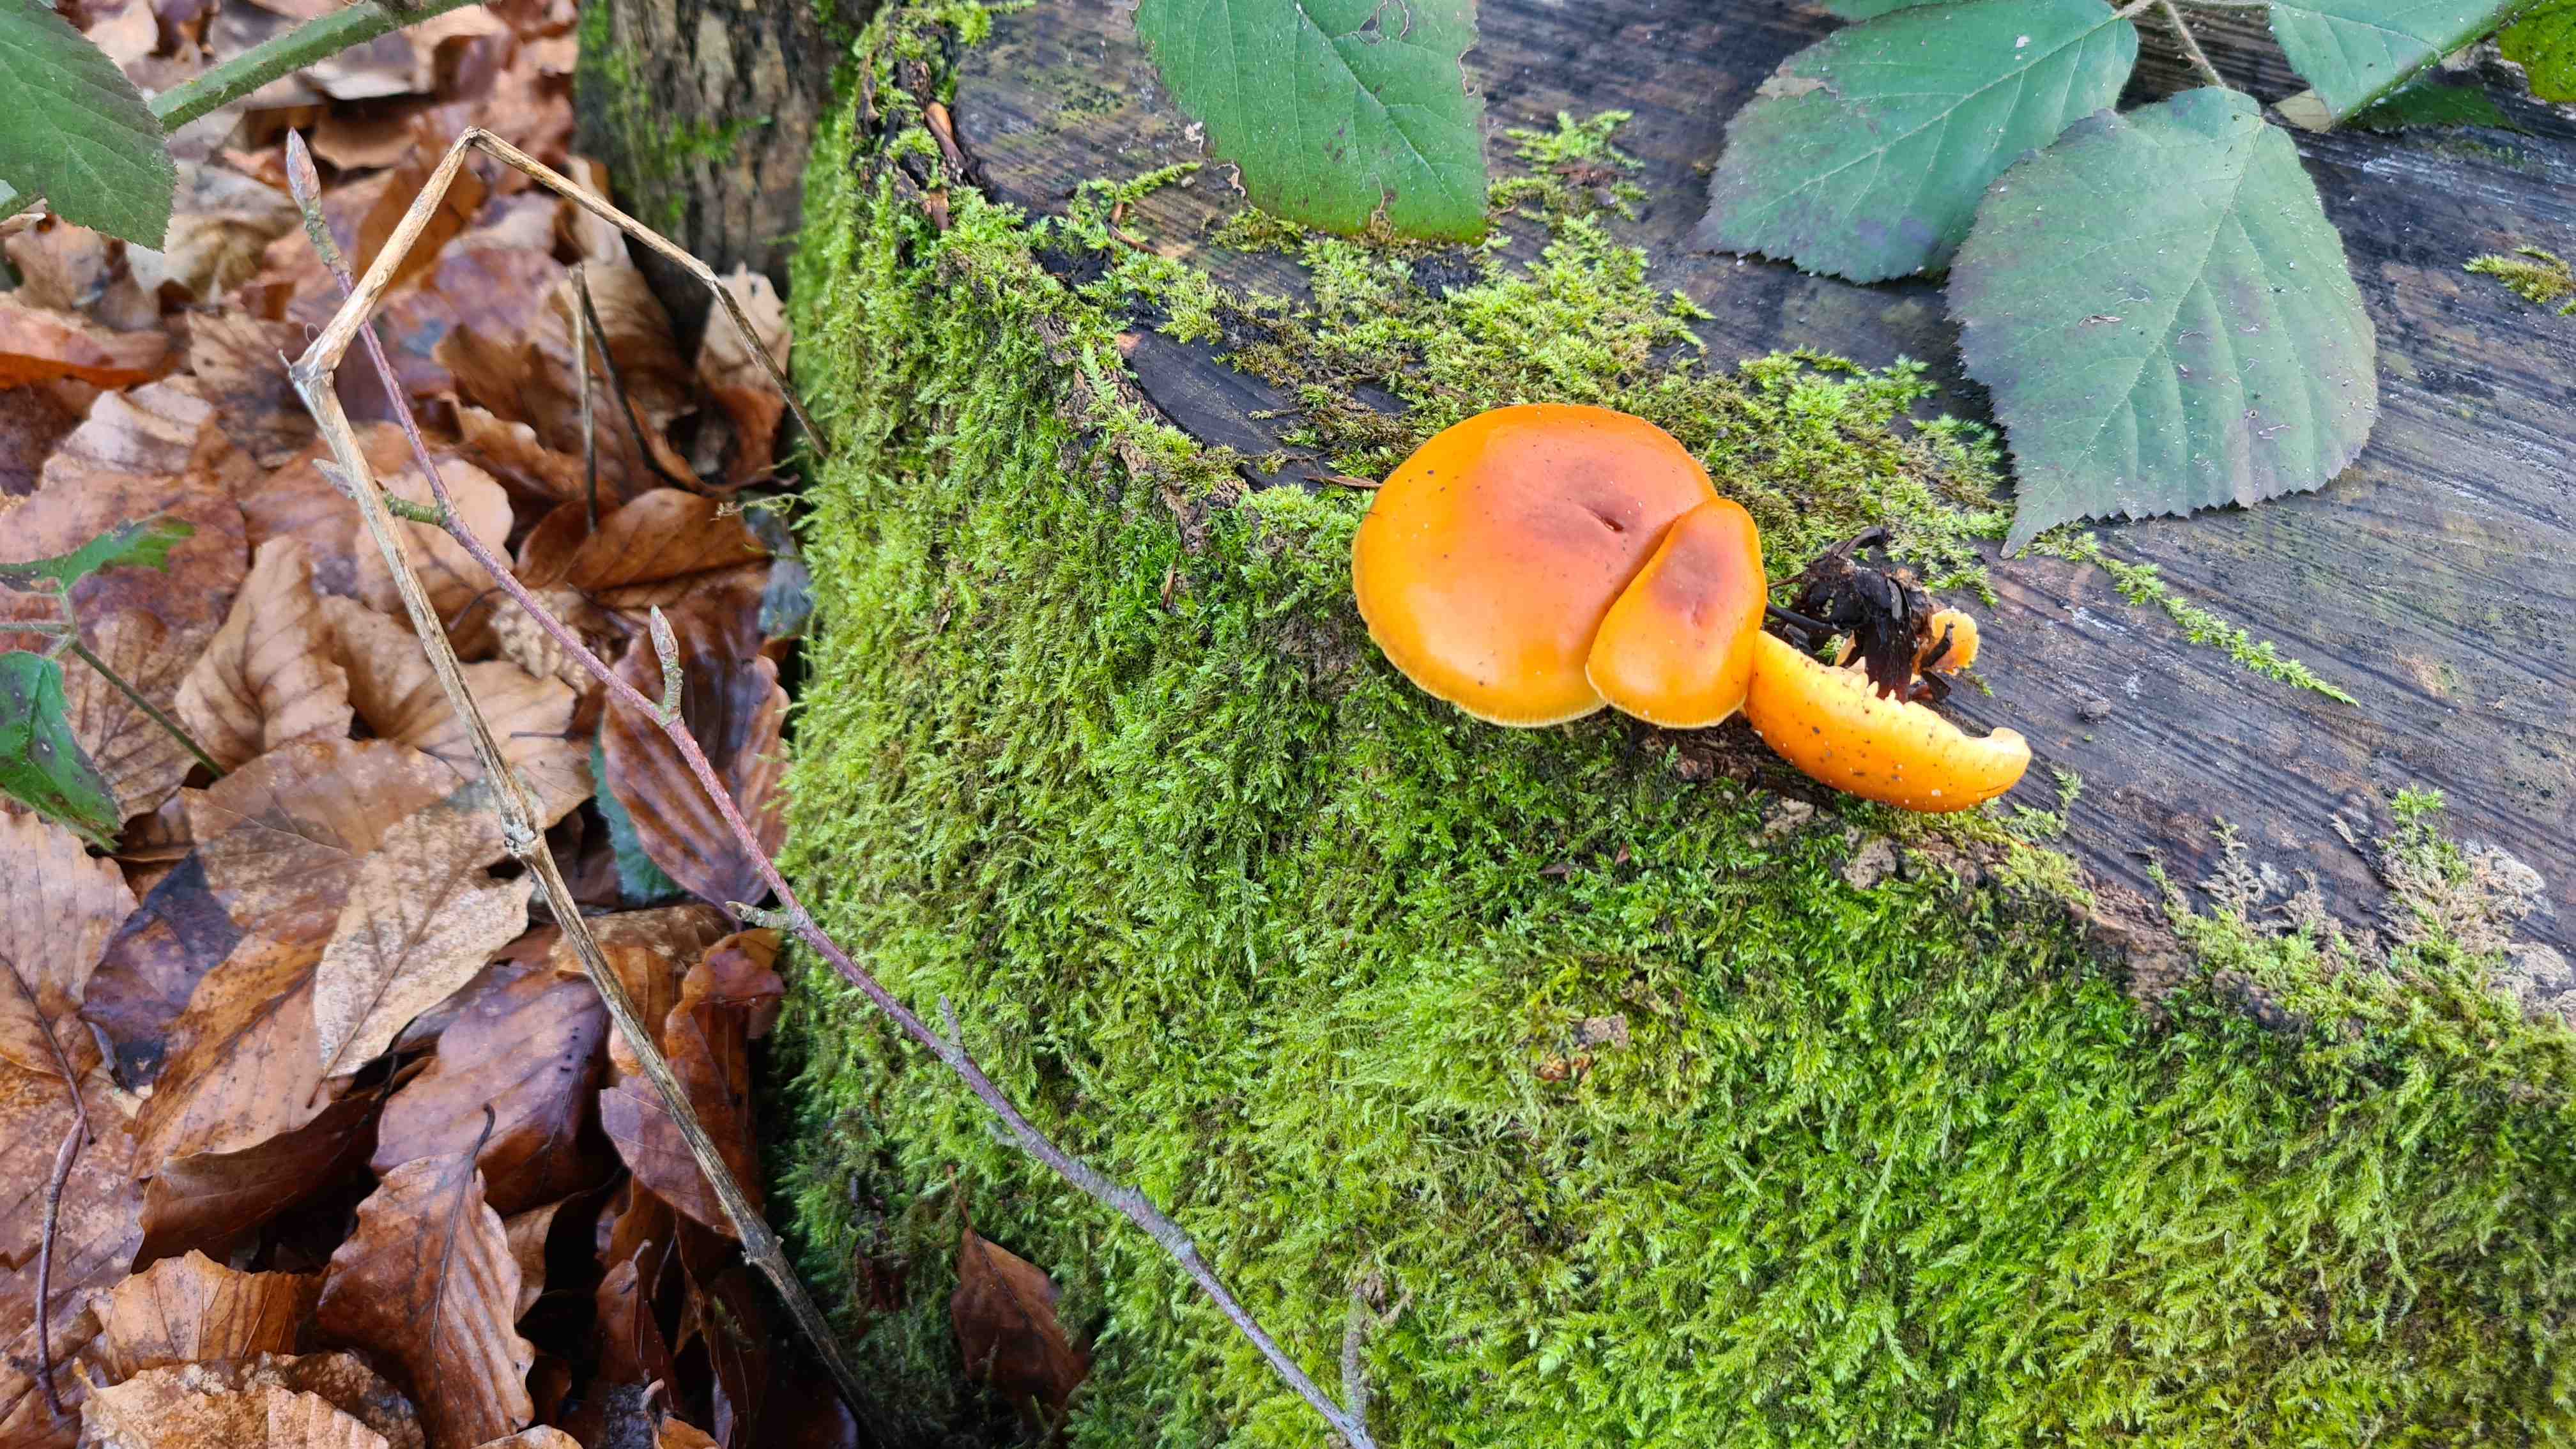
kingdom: Fungi
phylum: Basidiomycota
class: Agaricomycetes
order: Agaricales
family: Physalacriaceae
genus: Flammulina
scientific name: Flammulina velutipes
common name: gul fløjlsfod
